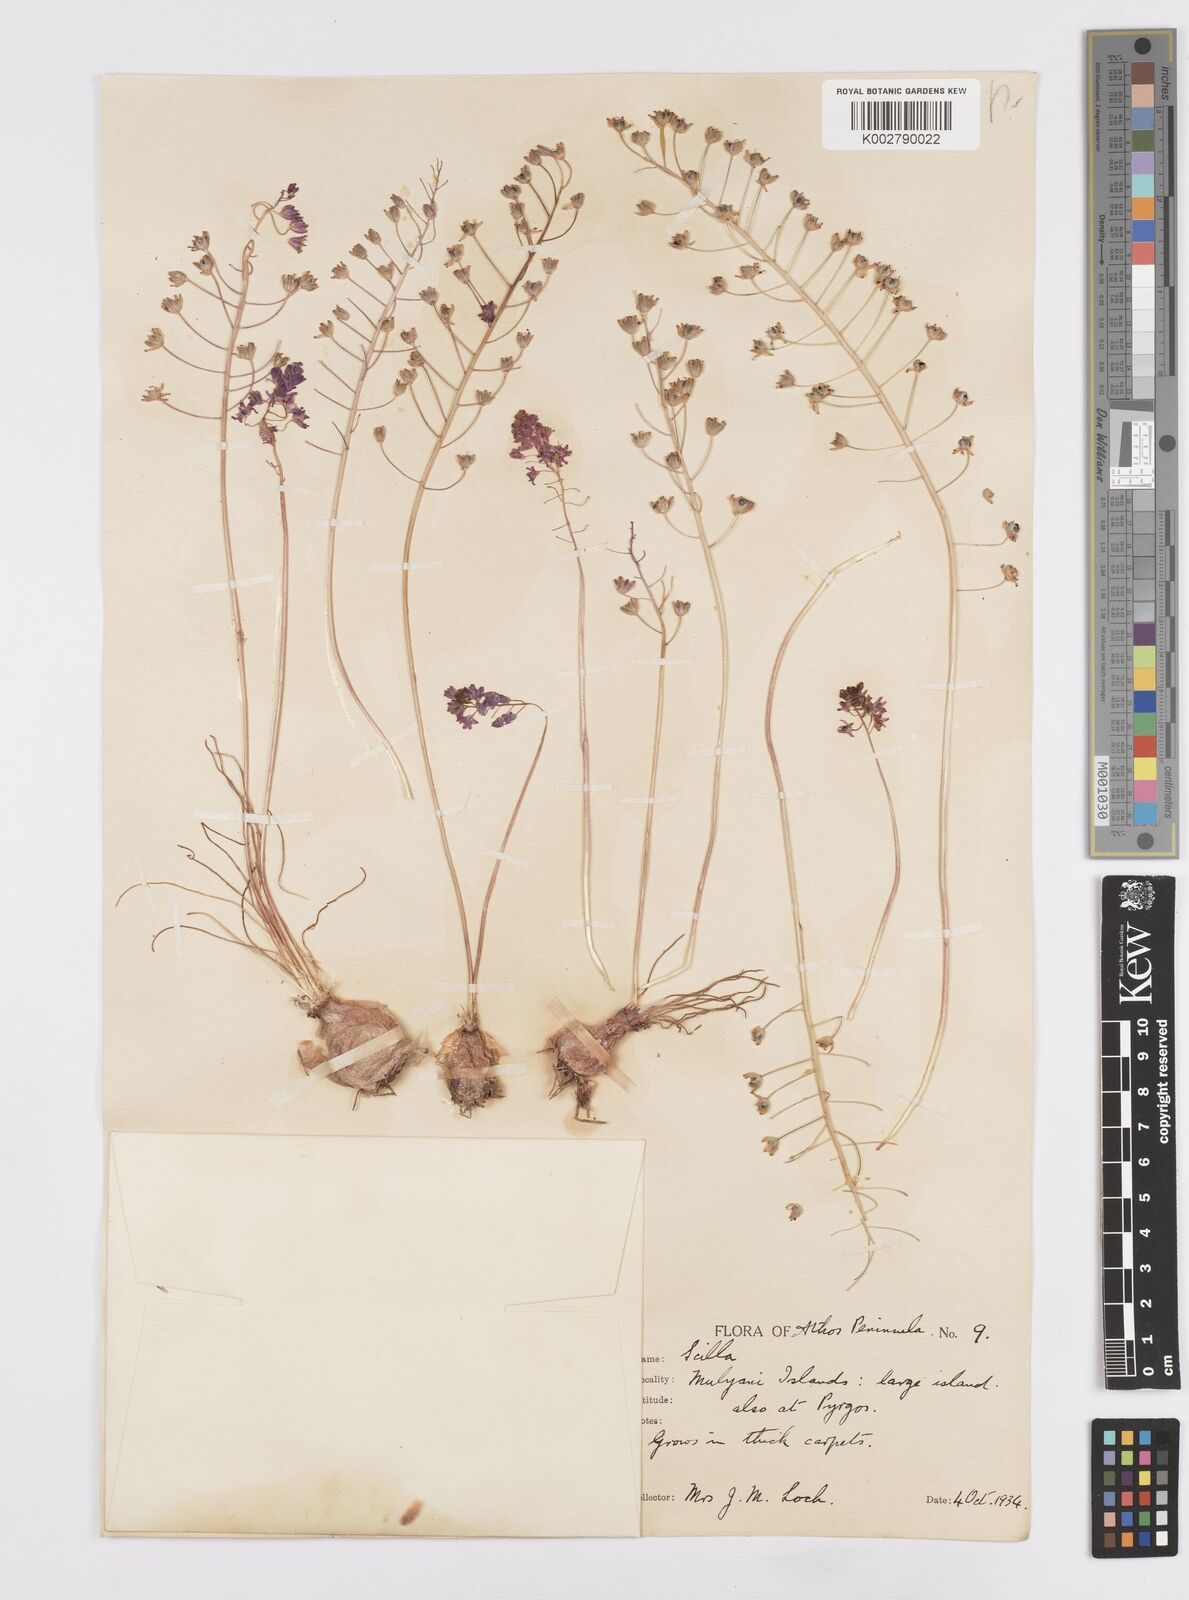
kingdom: Plantae
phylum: Tracheophyta
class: Liliopsida
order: Asparagales
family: Asparagaceae
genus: Prospero
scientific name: Prospero autumnale
